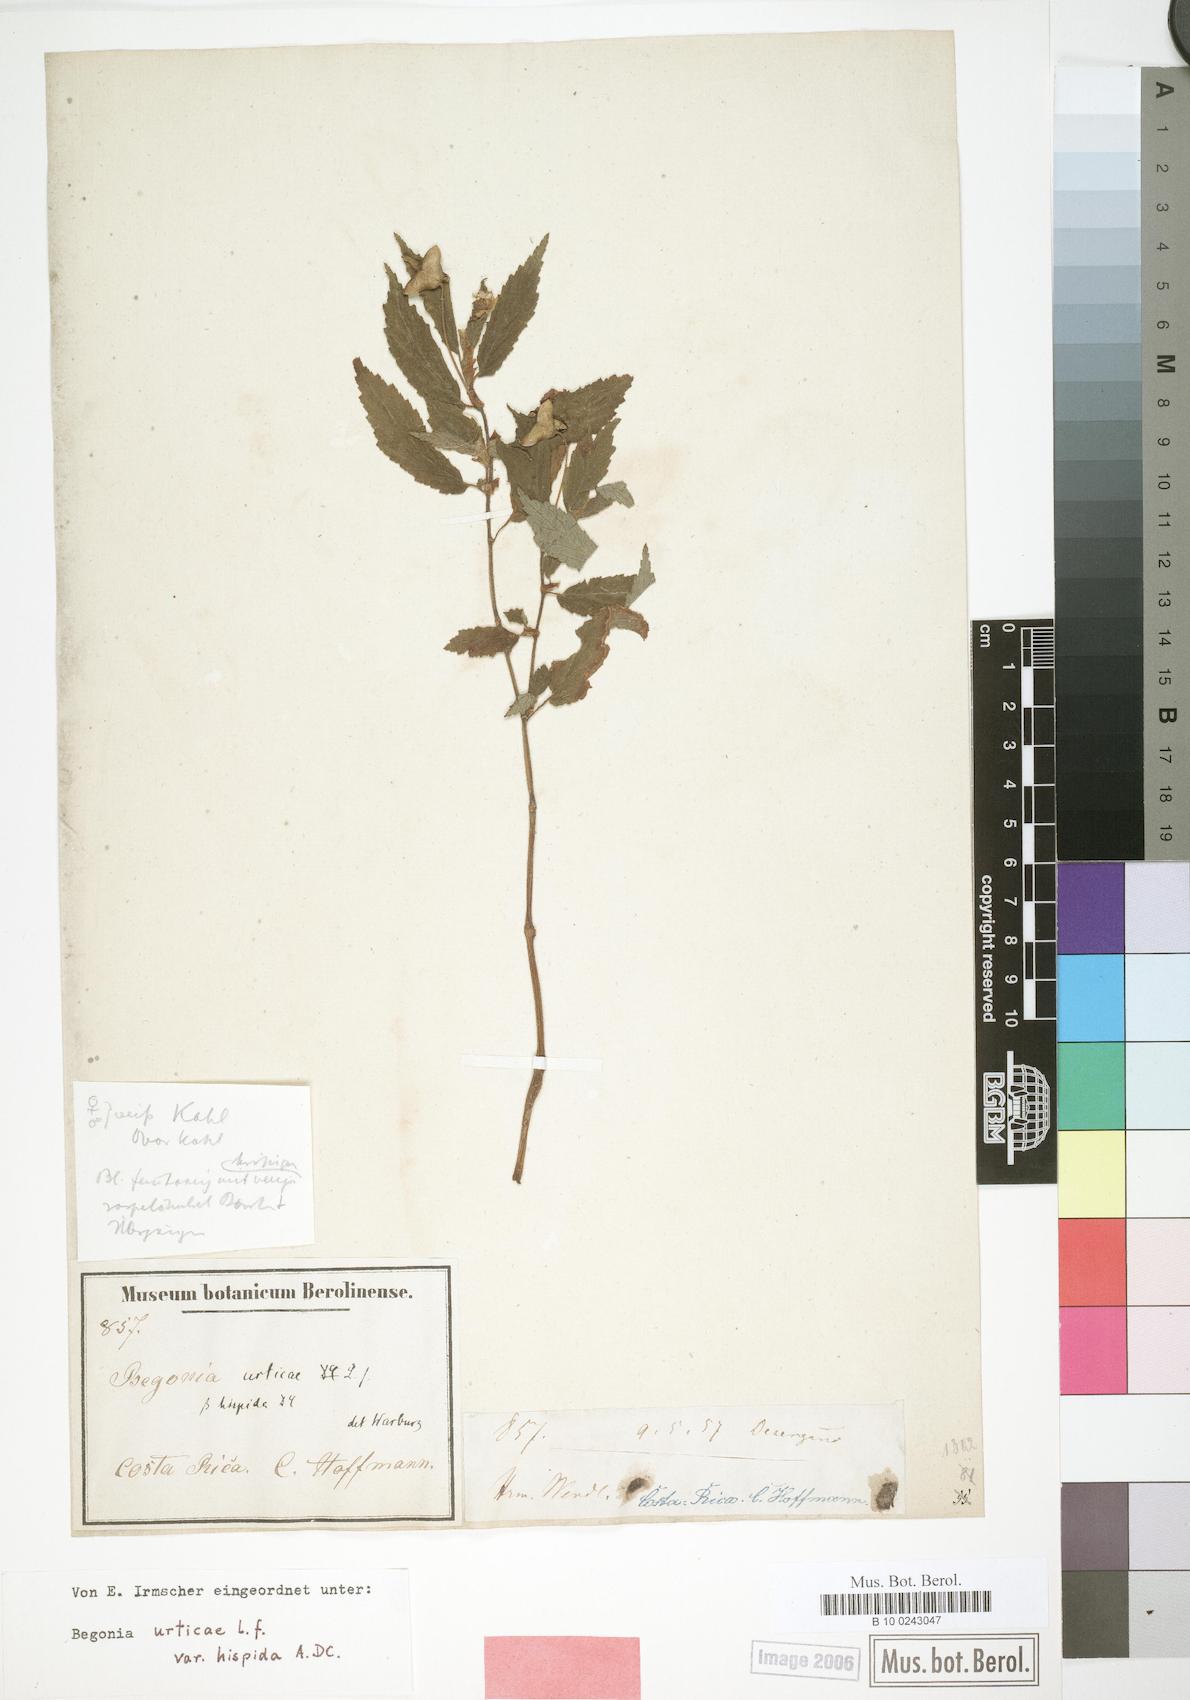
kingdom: Plantae
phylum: Tracheophyta
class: Magnoliopsida
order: Cucurbitales
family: Begoniaceae
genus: Begonia
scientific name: Begonia urticae
